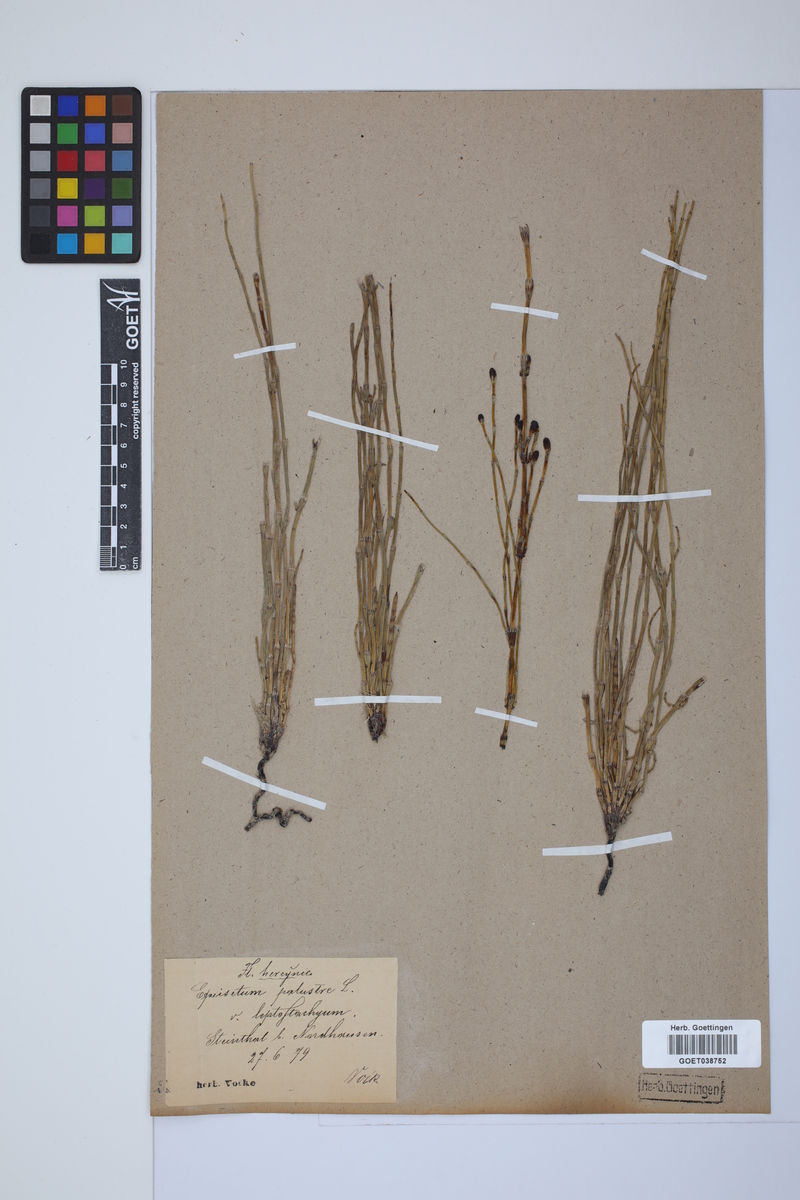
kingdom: Plantae
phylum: Tracheophyta
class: Polypodiopsida
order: Equisetales
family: Equisetaceae
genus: Equisetum
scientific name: Equisetum palustre
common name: Marsh horsetail
